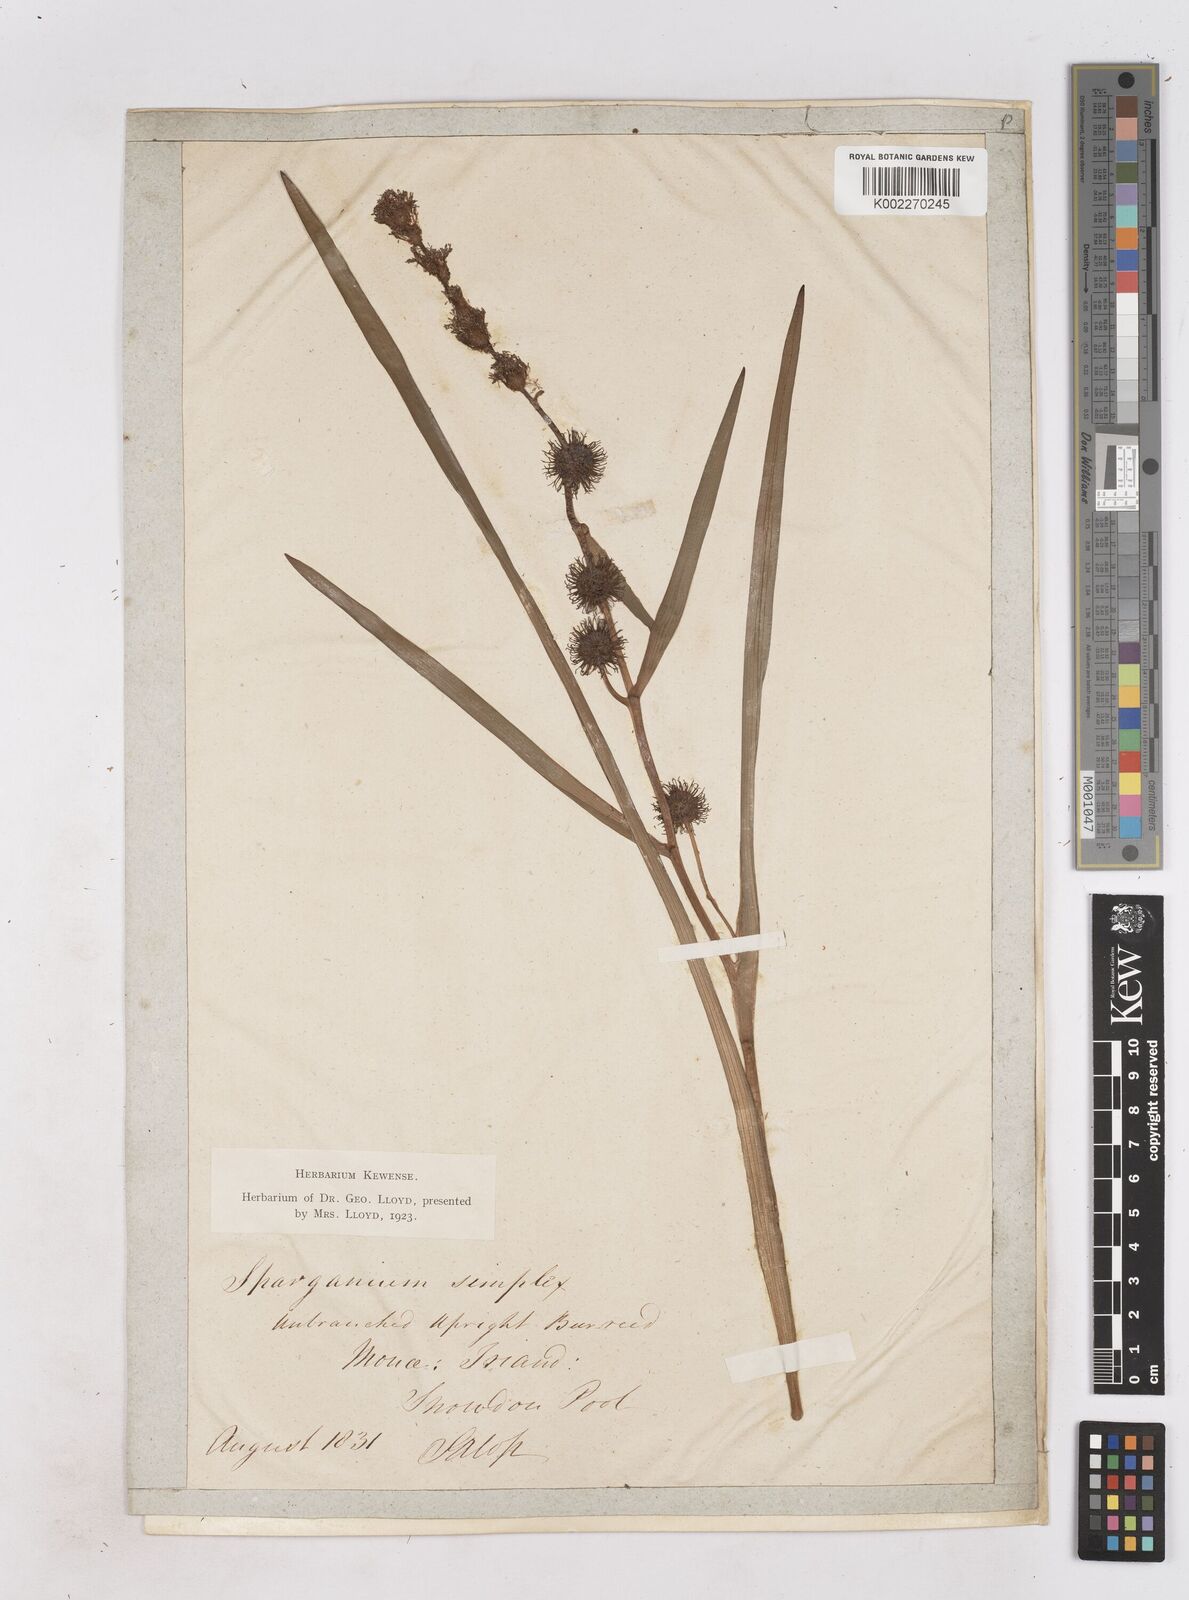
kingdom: Plantae
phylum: Tracheophyta
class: Liliopsida
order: Poales
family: Typhaceae
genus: Sparganium
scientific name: Sparganium emersum
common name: Unbranched bur-reed
